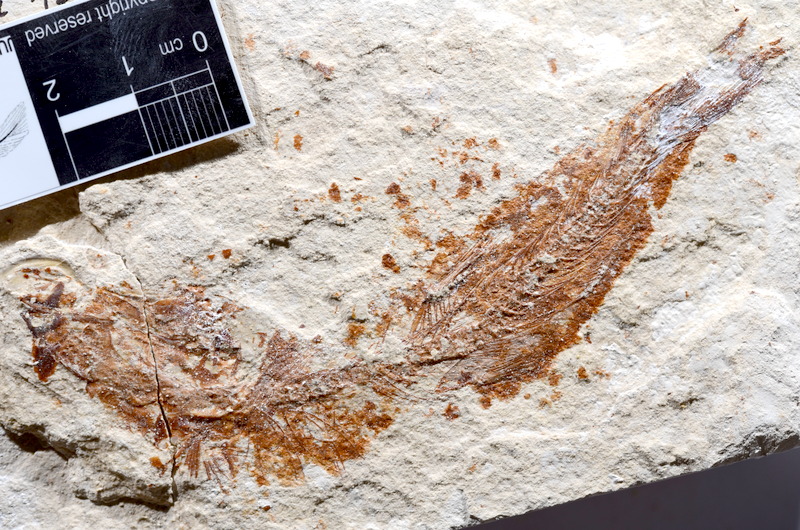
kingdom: Animalia
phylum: Chordata
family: Ascalaboidae
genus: Tharsis
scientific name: Tharsis dubius
